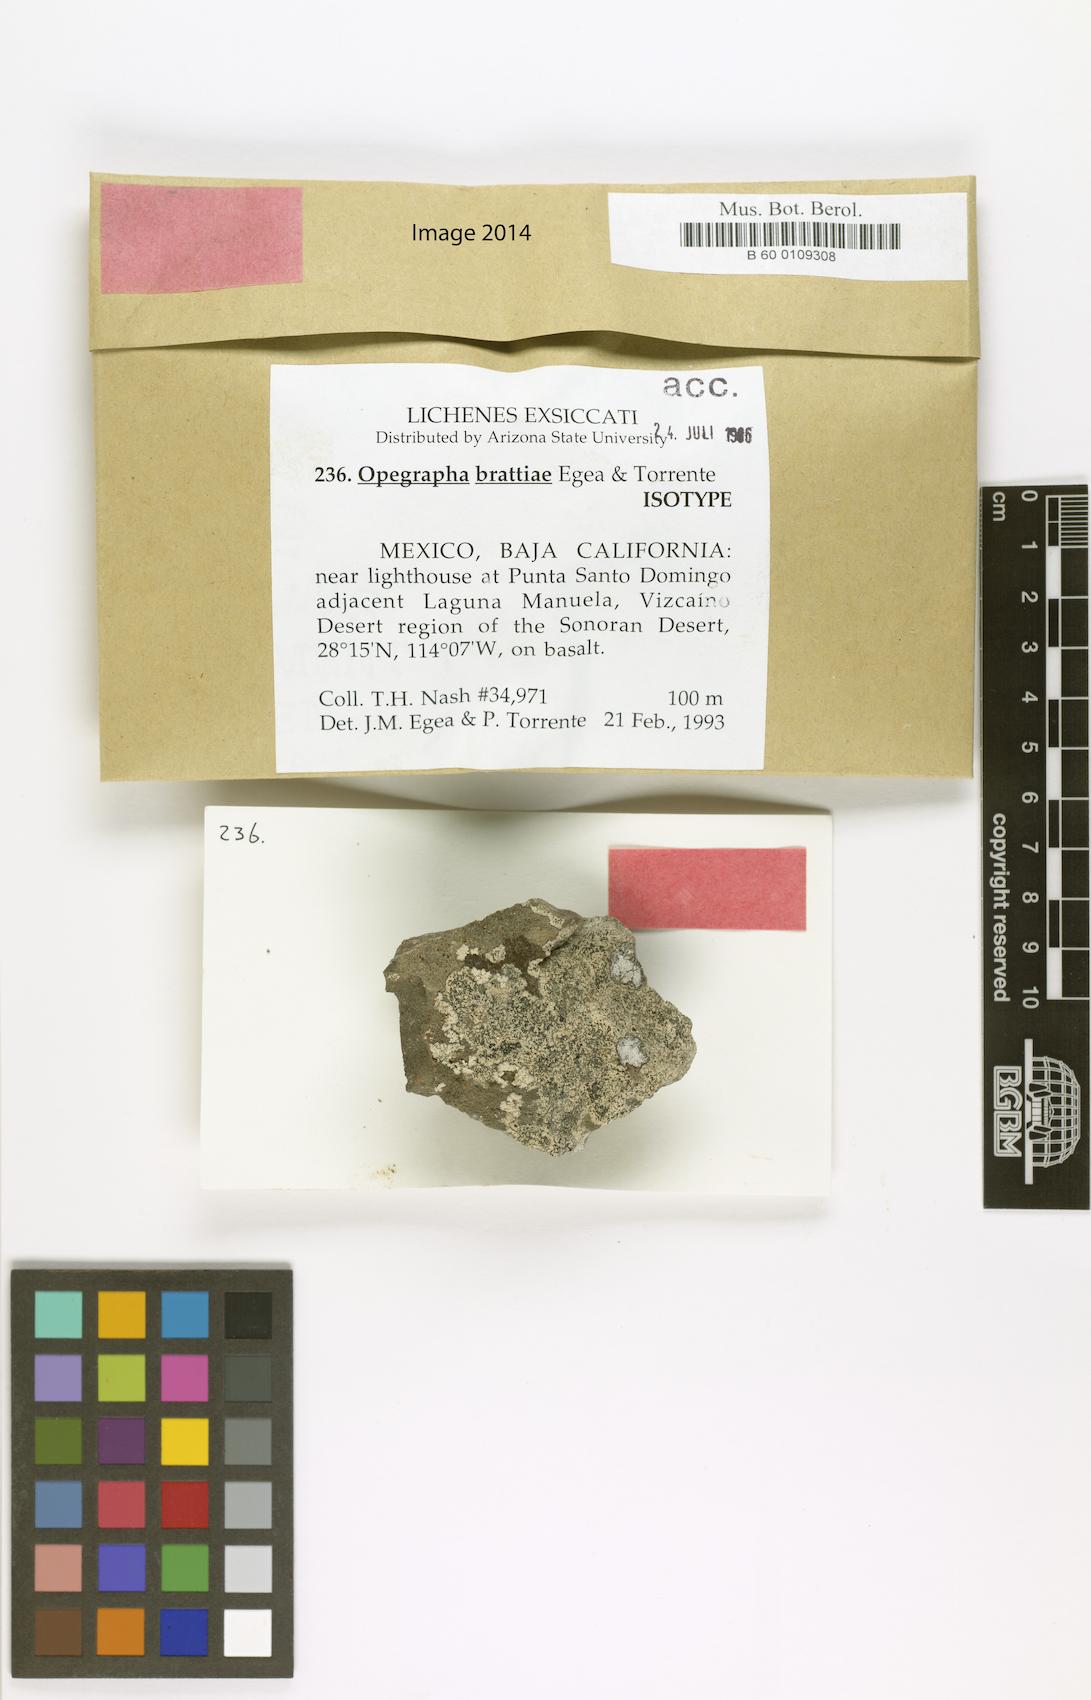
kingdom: Fungi
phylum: Ascomycota
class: Arthoniomycetes
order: Arthoniales
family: Lecanographaceae
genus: Lecanographa
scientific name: Lecanographa brattiae
